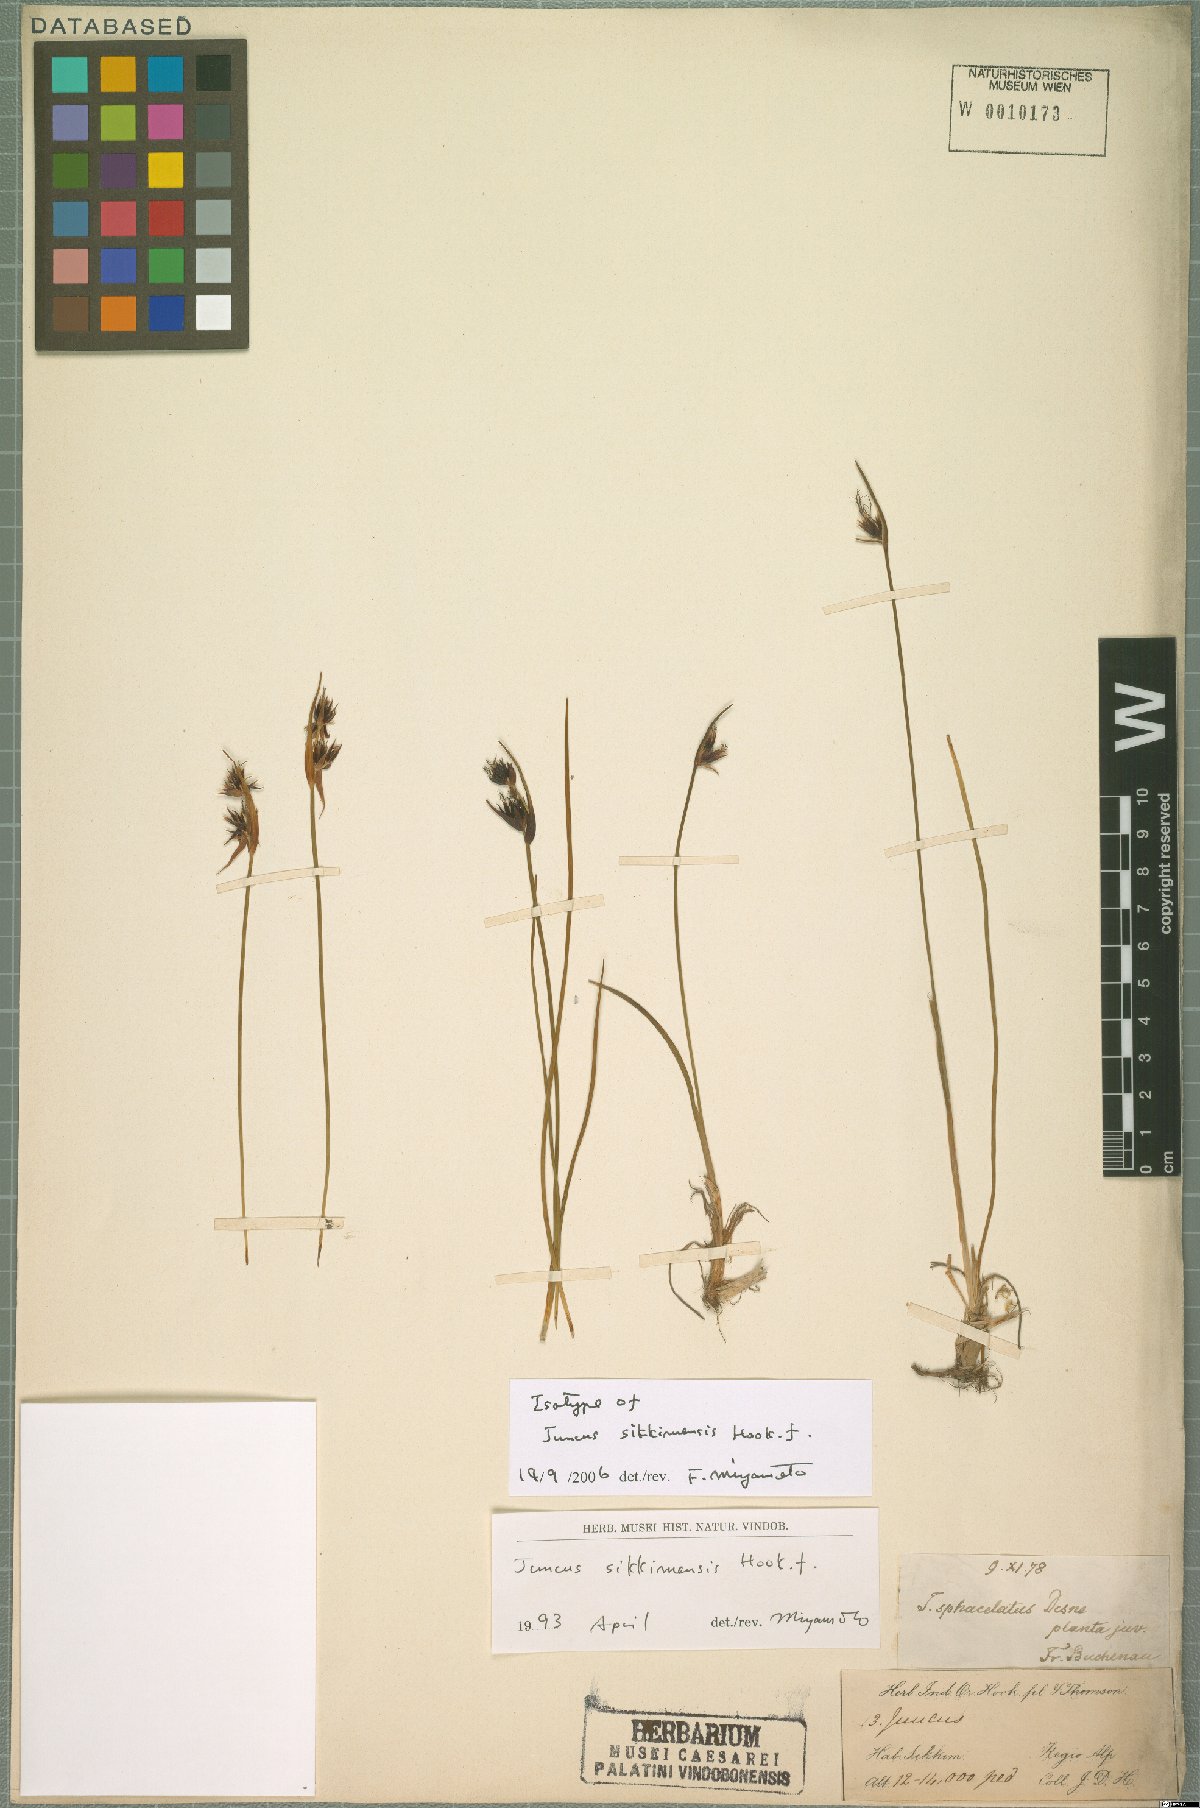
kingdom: Plantae
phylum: Tracheophyta
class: Liliopsida
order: Poales
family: Juncaceae
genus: Juncus
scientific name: Juncus sikkimensis
